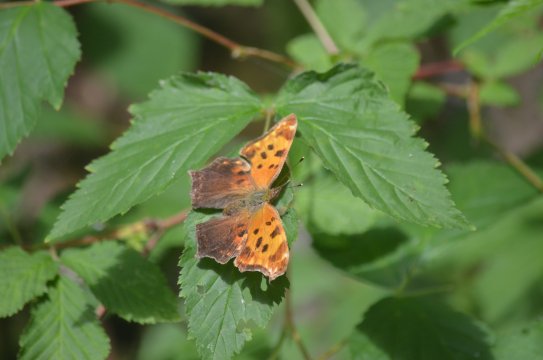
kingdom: Animalia
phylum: Arthropoda
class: Insecta
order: Lepidoptera
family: Nymphalidae
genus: Polygonia
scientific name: Polygonia comma
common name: Eastern Comma
